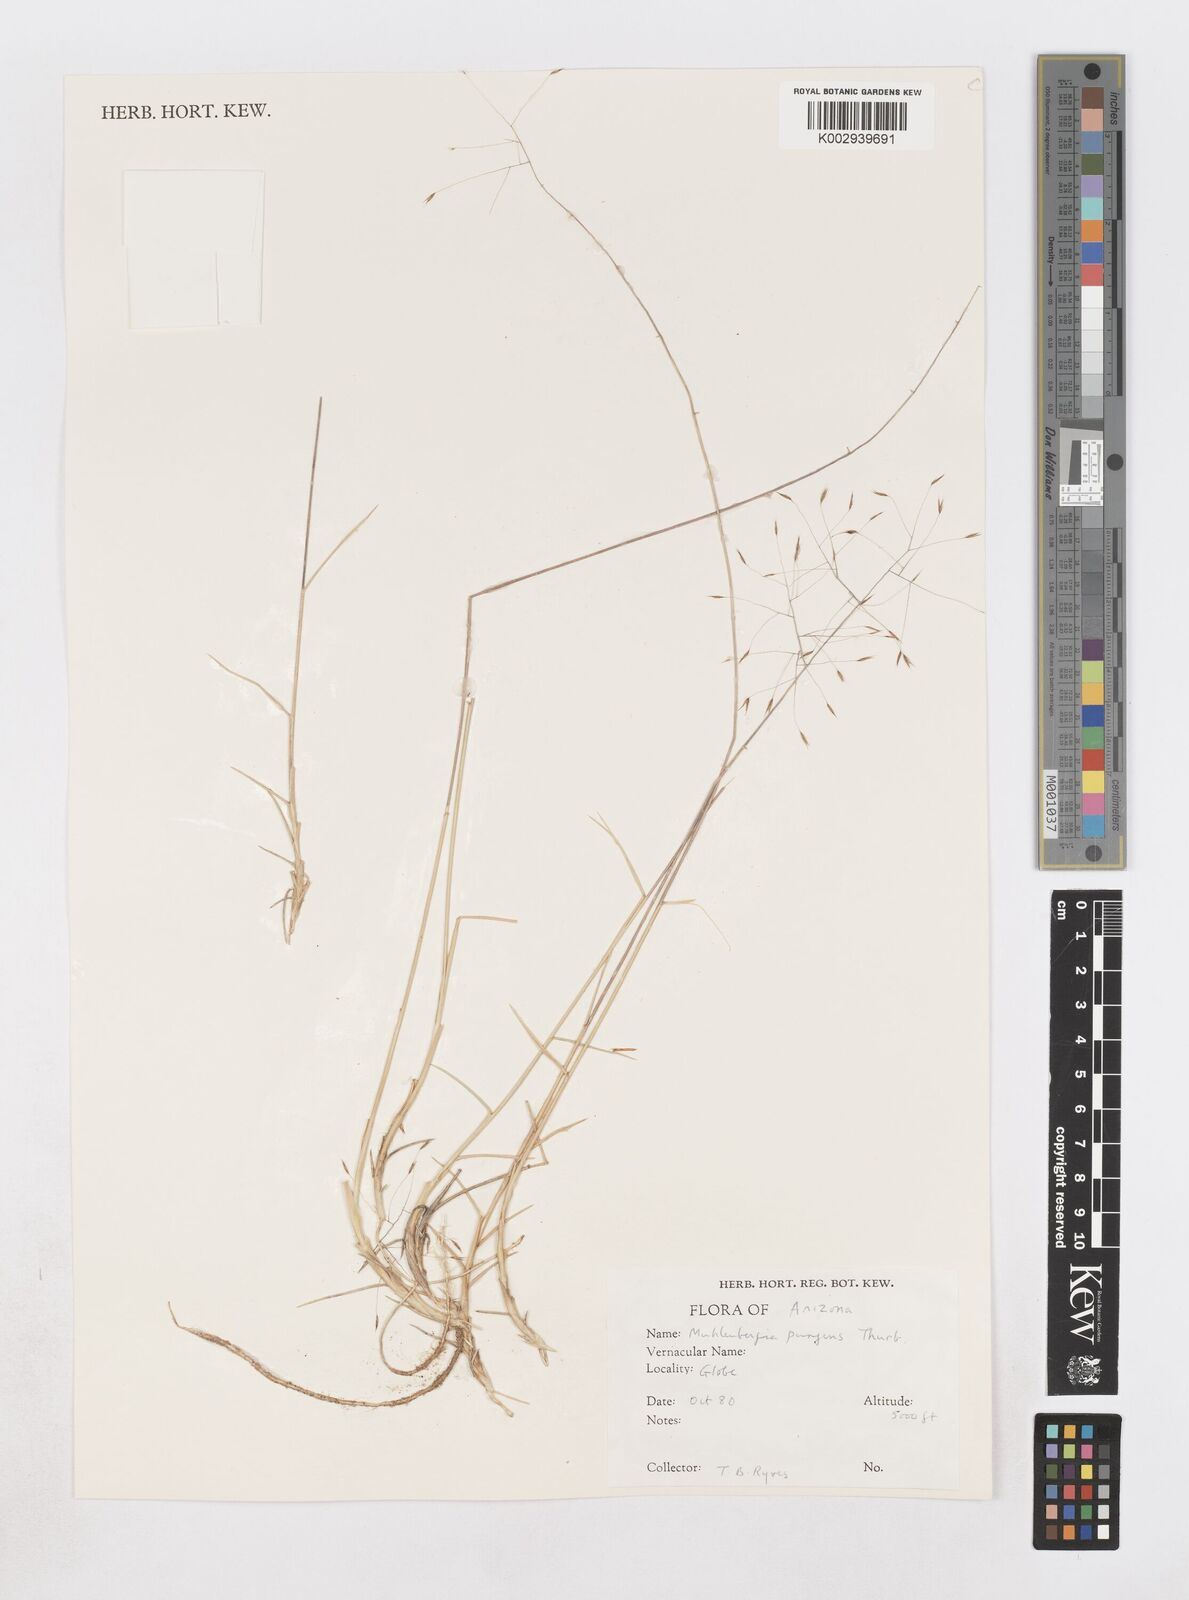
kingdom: Plantae
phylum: Tracheophyta
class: Liliopsida
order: Poales
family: Poaceae
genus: Muhlenbergia
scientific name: Muhlenbergia pungens
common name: Sandhill muhly
